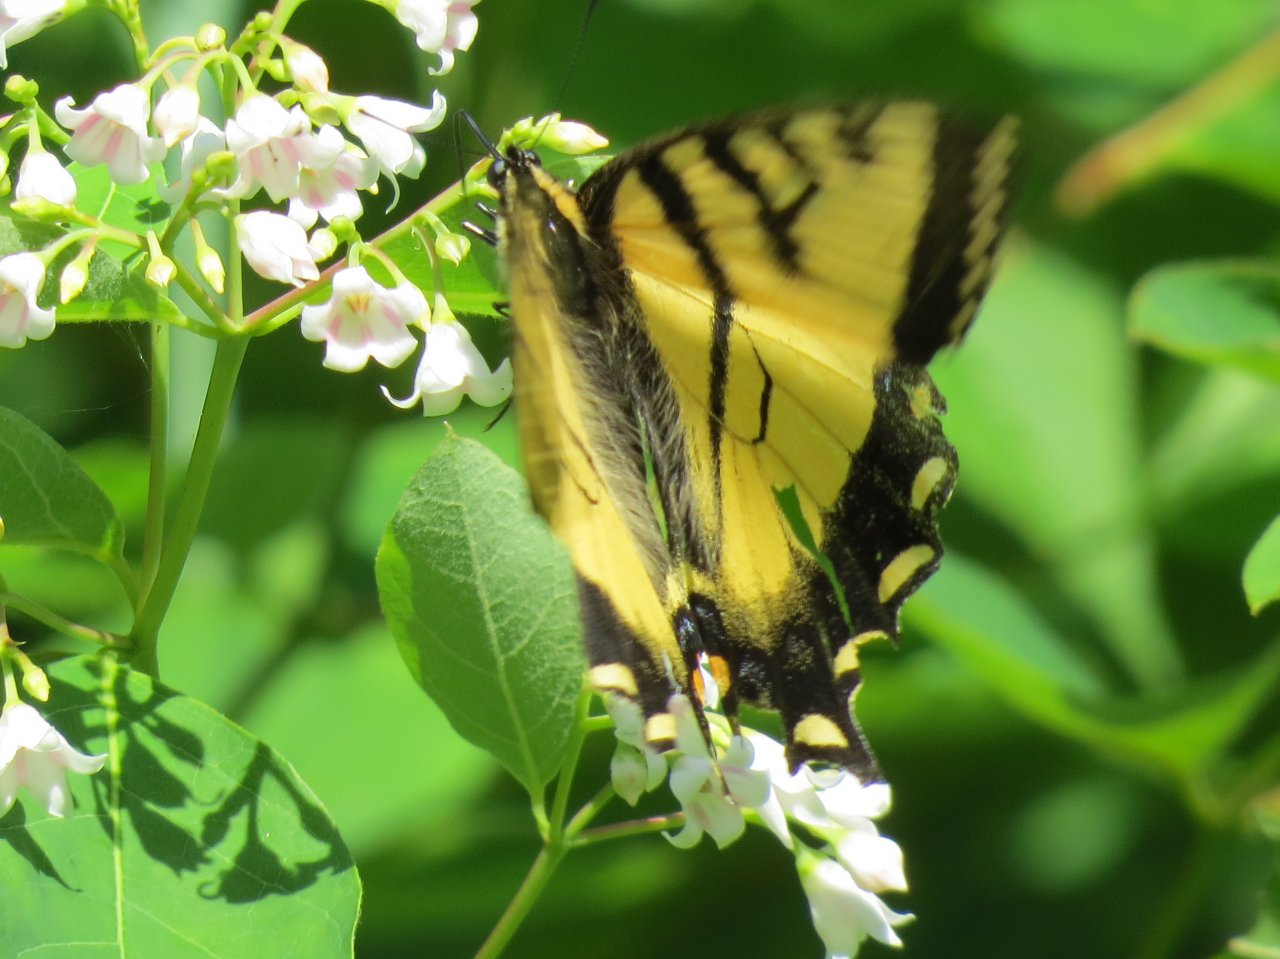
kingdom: Animalia
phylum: Arthropoda
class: Insecta
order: Lepidoptera
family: Papilionidae
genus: Pterourus
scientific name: Pterourus canadensis
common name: Canadian Tiger Swallowtail
